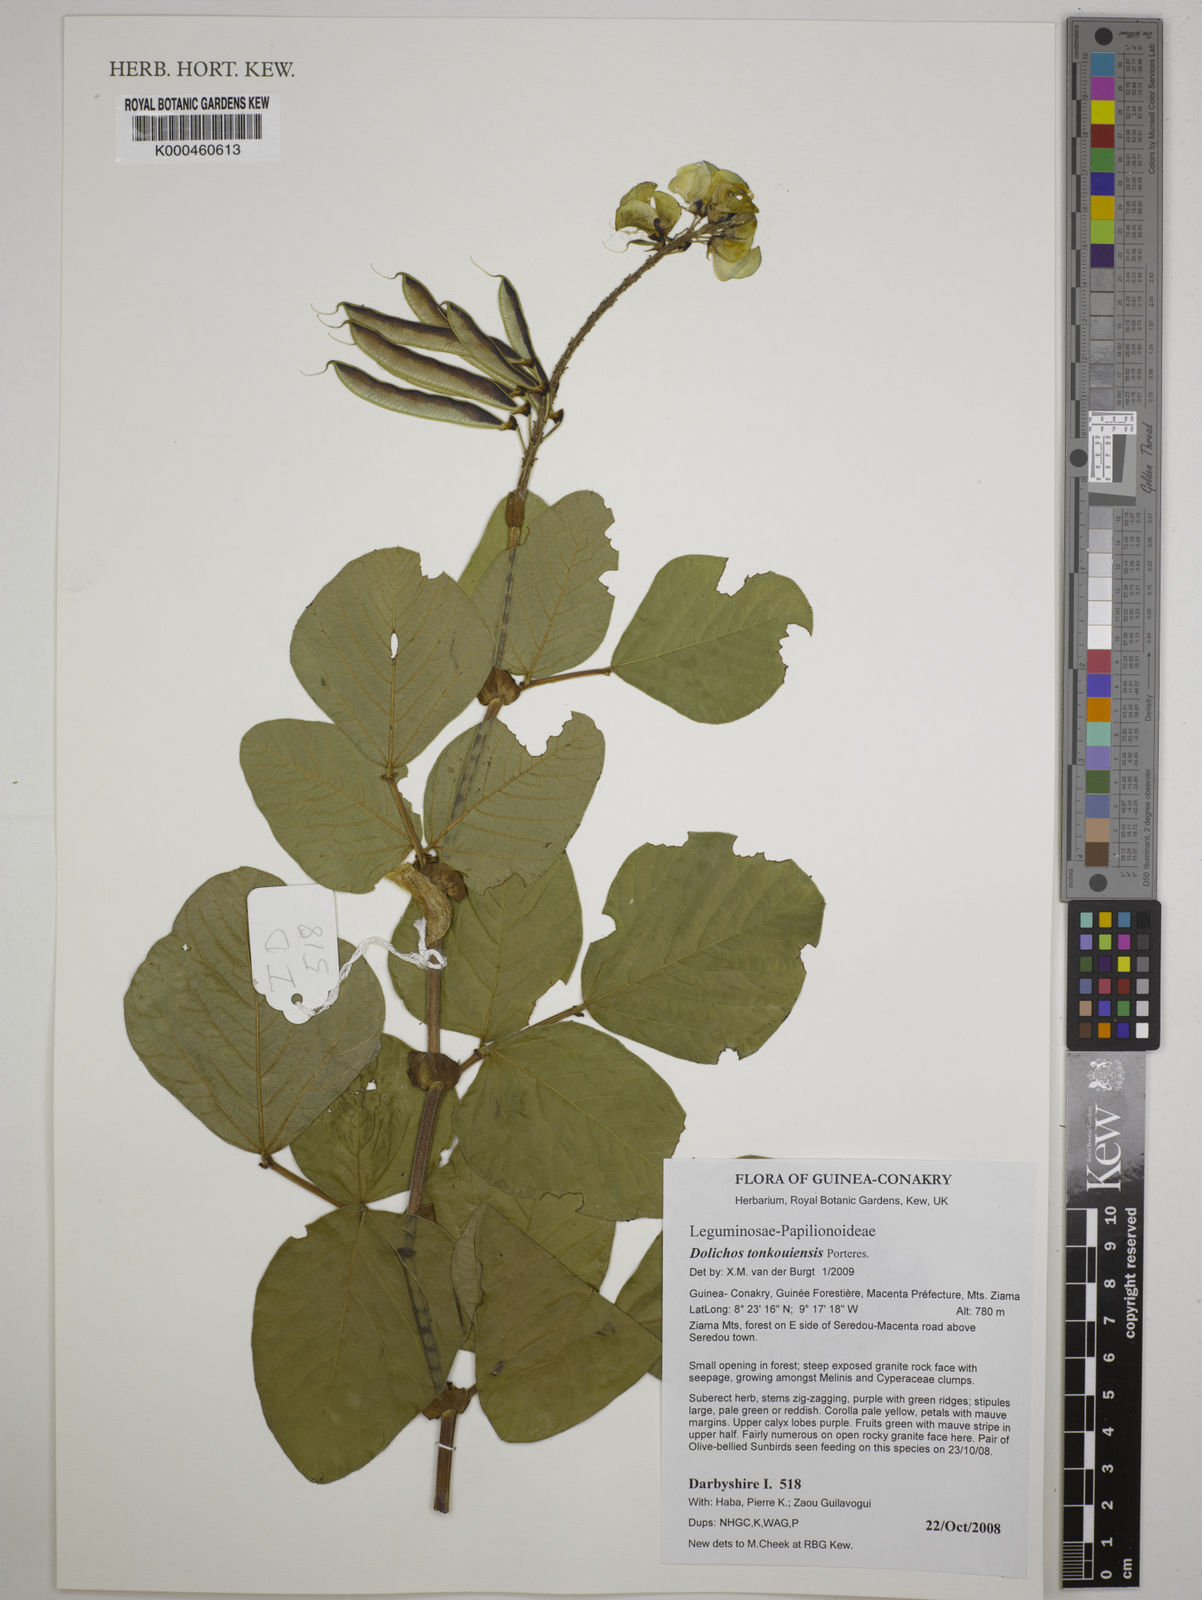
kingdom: Plantae
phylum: Tracheophyta
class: Magnoliopsida
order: Fabales
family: Fabaceae
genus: Dolichos
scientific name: Dolichos tonkouiensis
